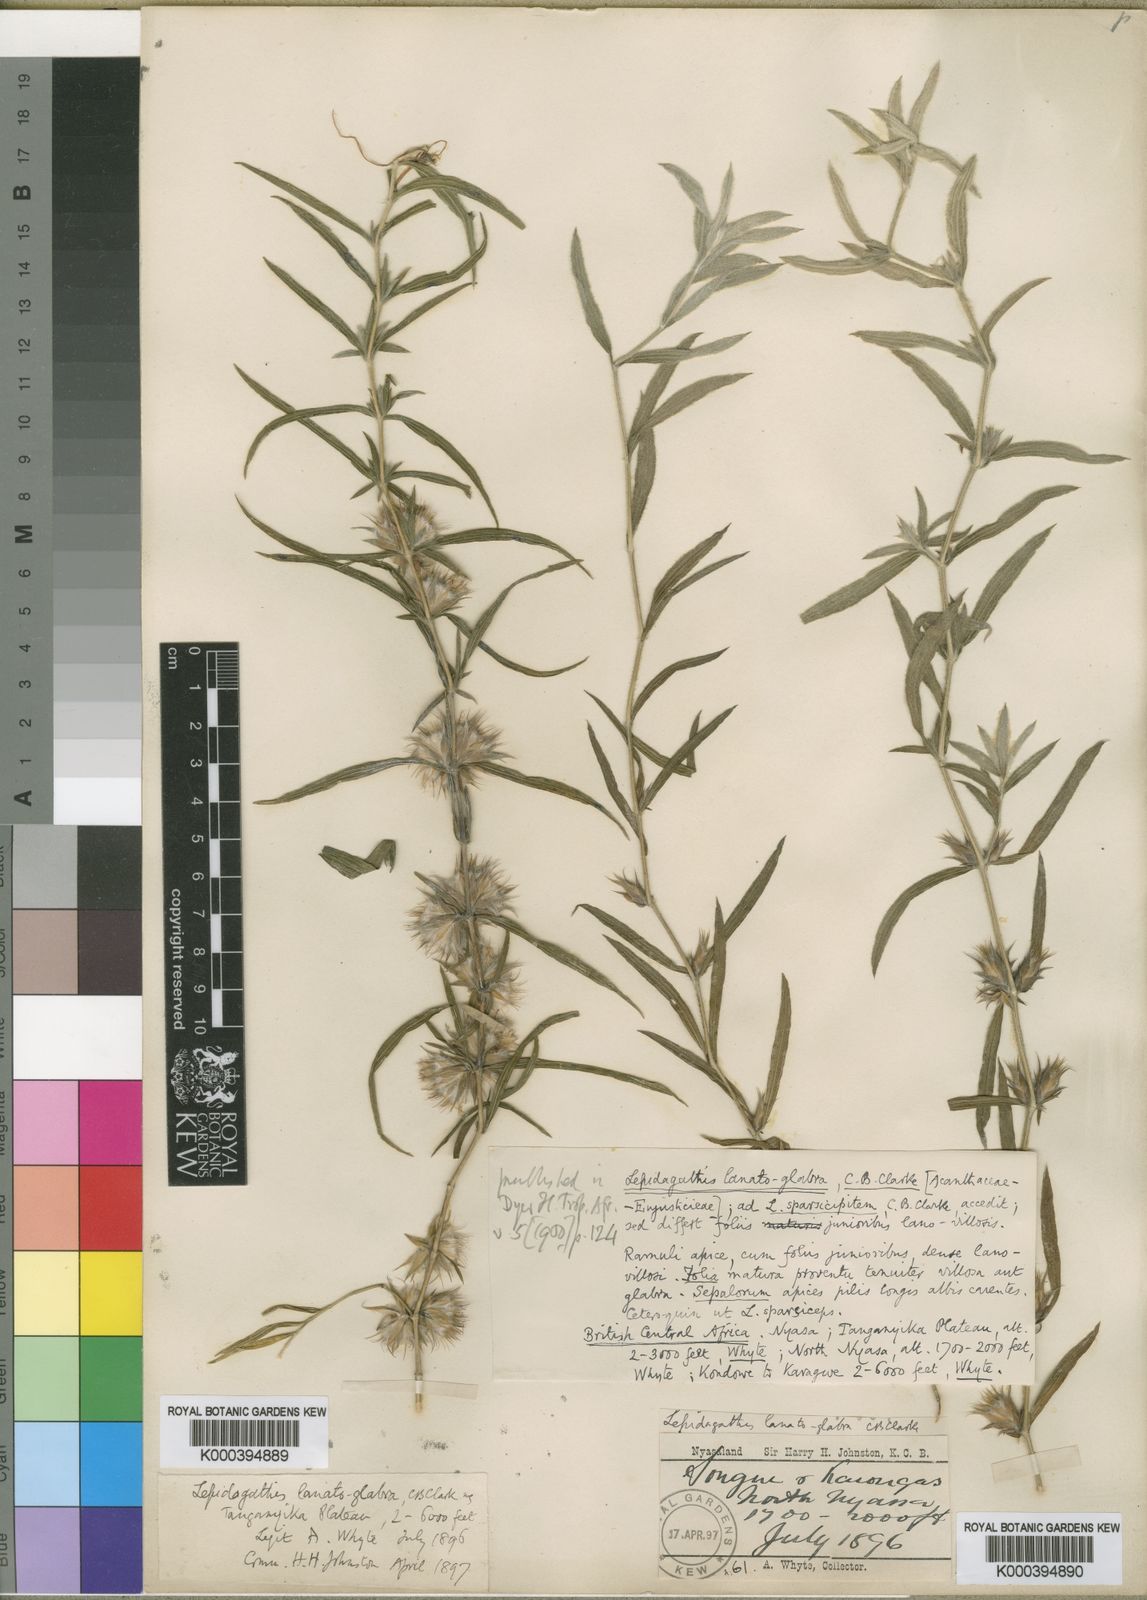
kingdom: Plantae
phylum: Tracheophyta
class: Magnoliopsida
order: Lamiales
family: Acanthaceae
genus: Lepidagathis
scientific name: Lepidagathis lanatoglabra
